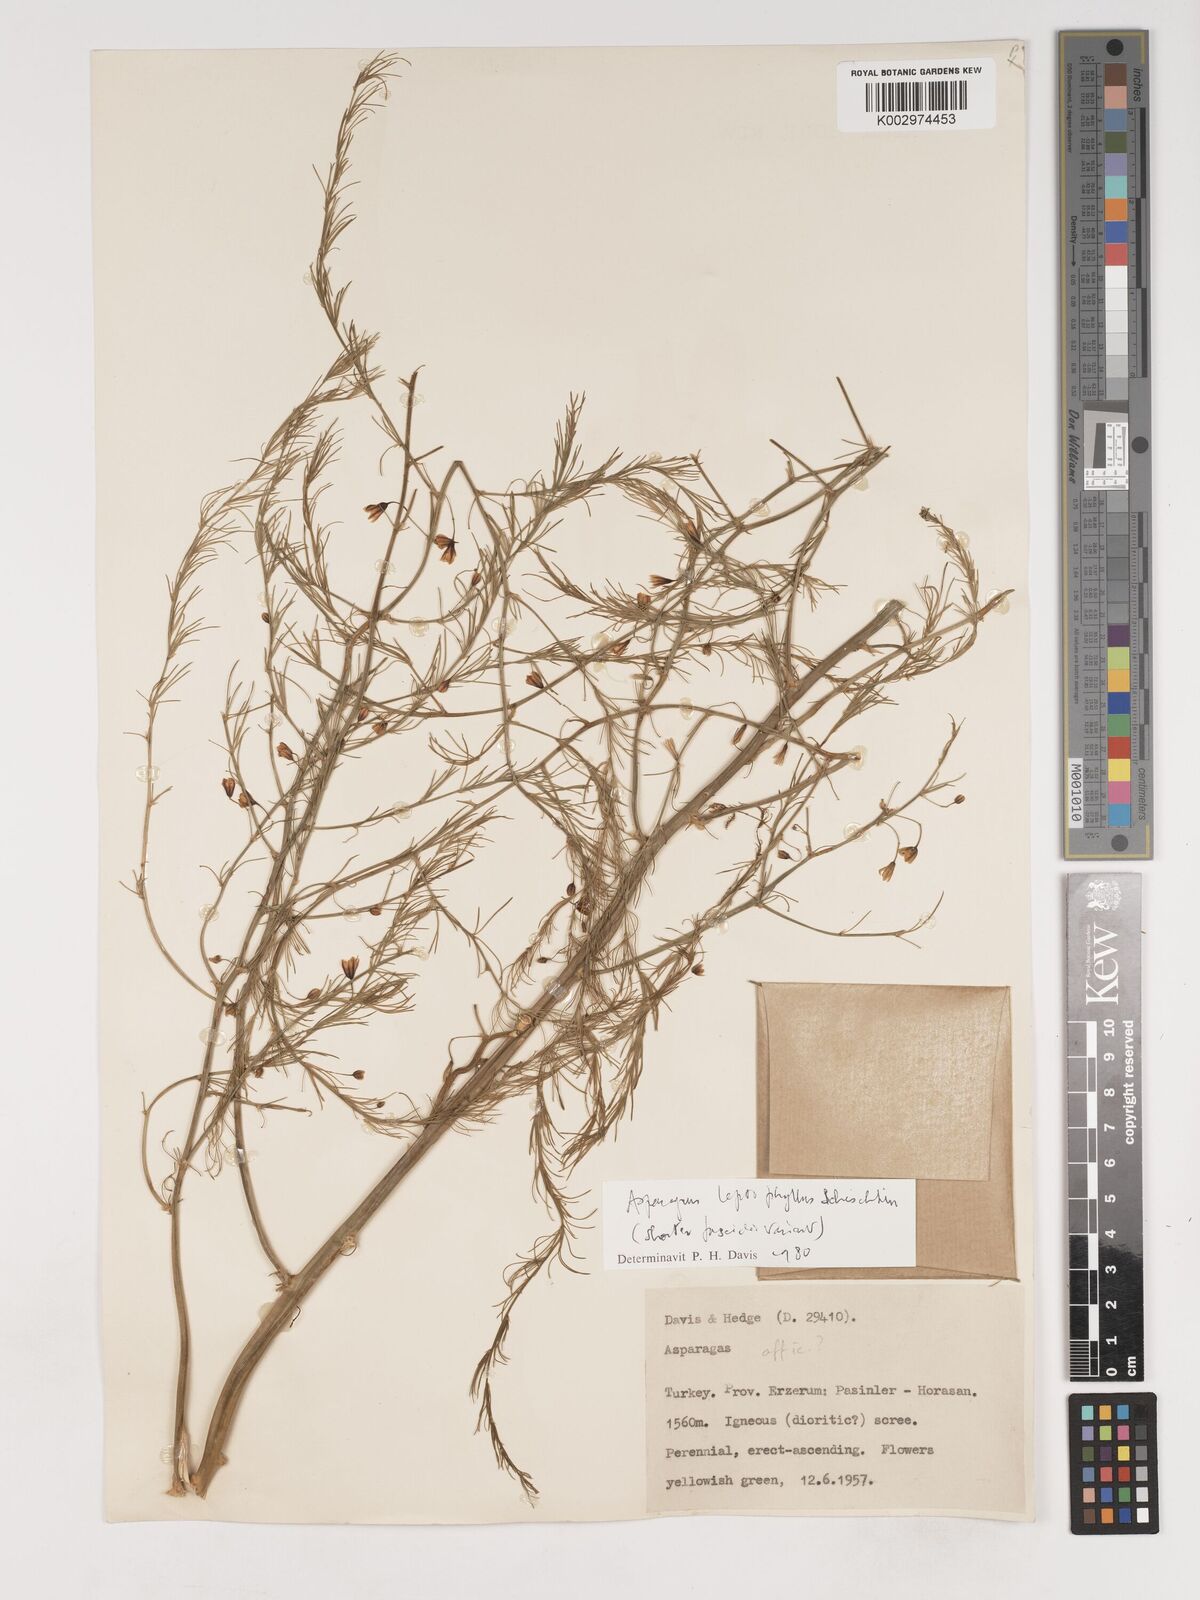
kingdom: Plantae
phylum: Tracheophyta
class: Liliopsida
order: Asparagales
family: Asparagaceae
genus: Asparagus
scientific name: Asparagus persicus
